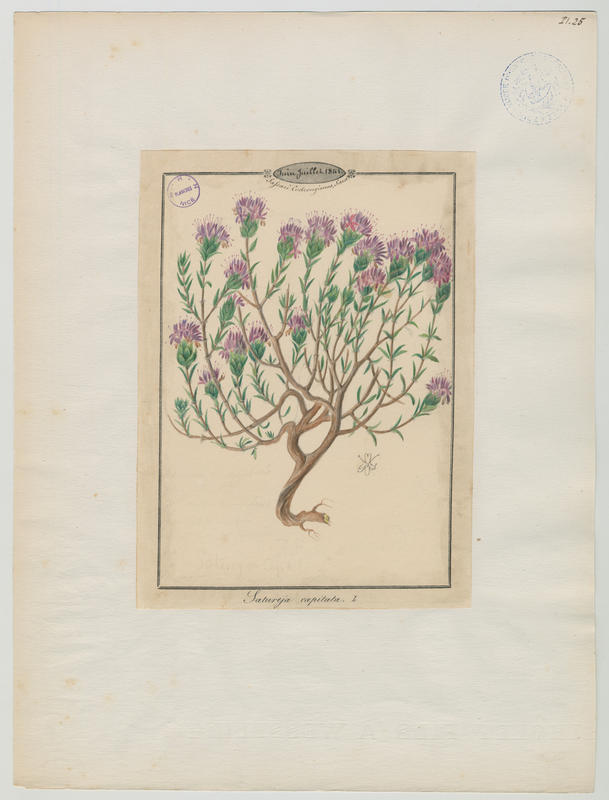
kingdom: Plantae
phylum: Tracheophyta
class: Magnoliopsida
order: Lamiales
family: Lamiaceae
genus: Thymbra
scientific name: Thymbra capitata
